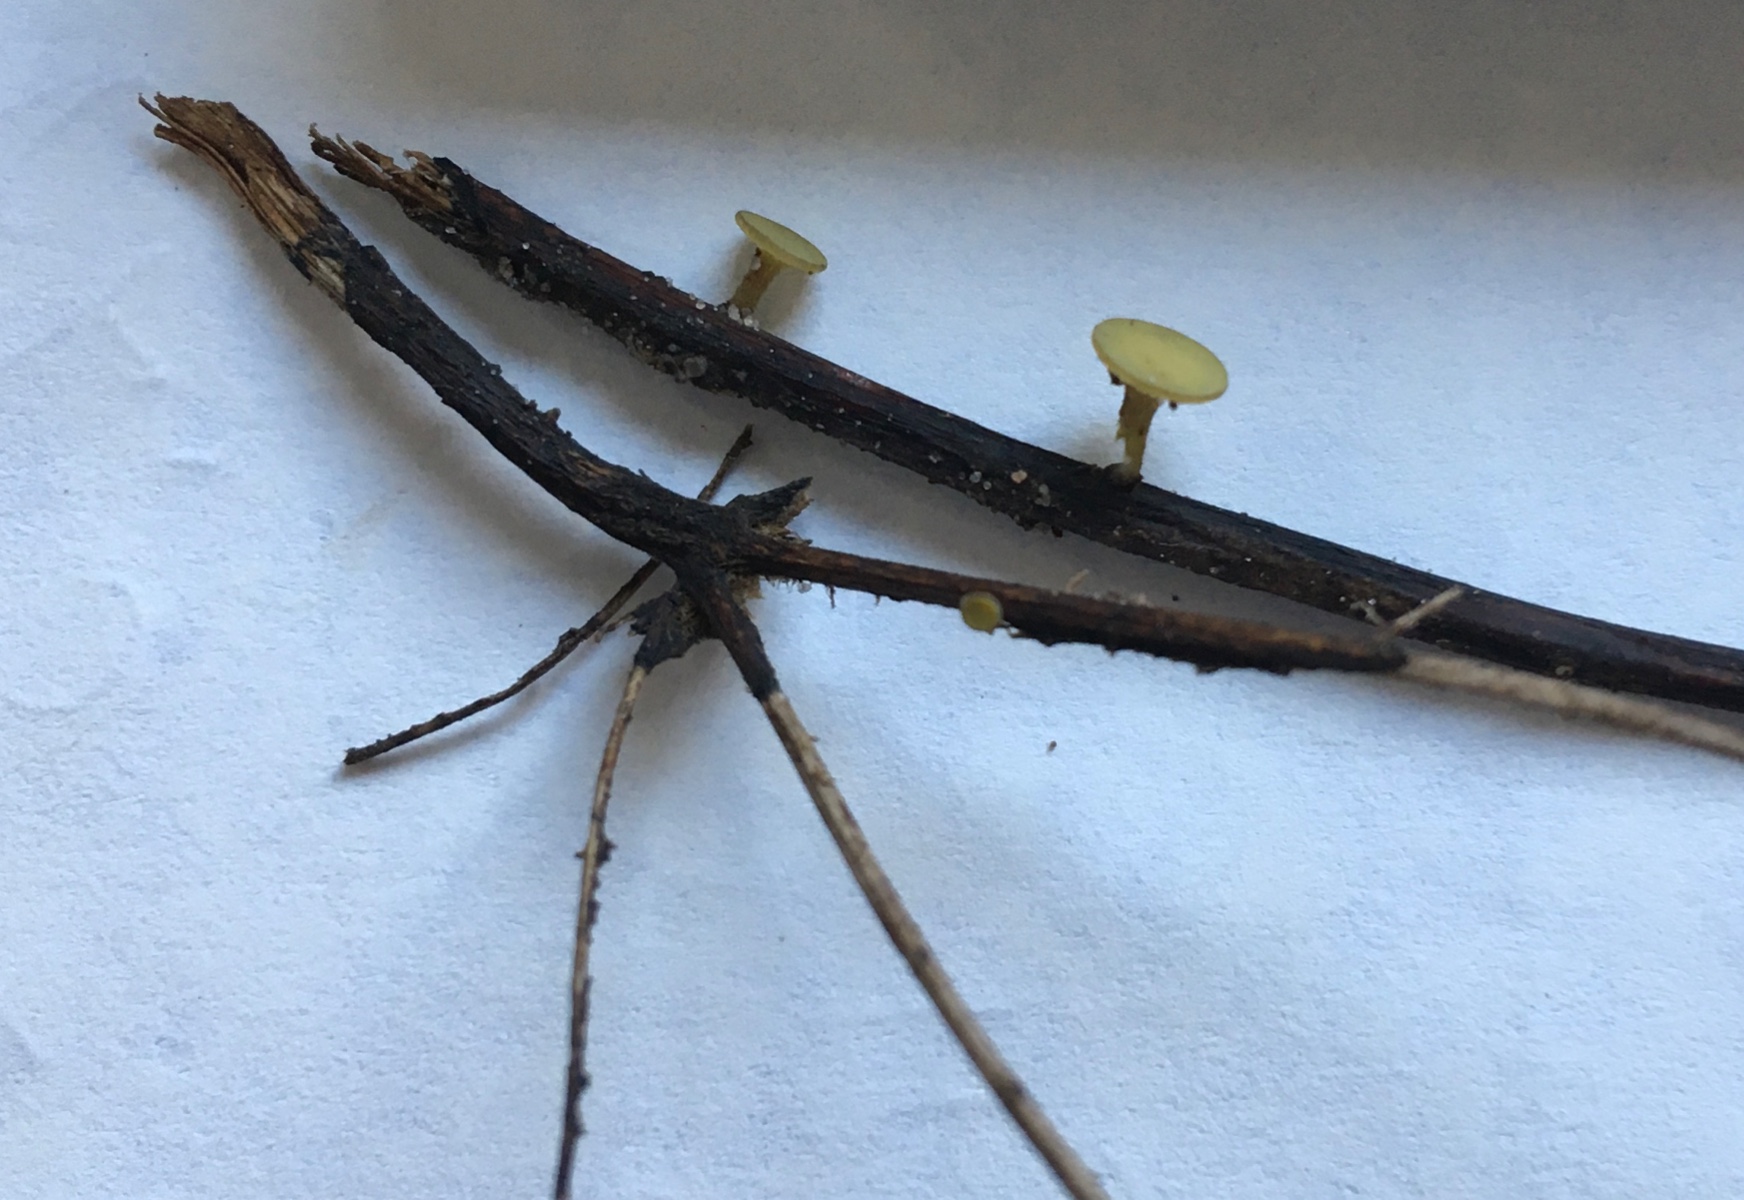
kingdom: Fungi
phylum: Ascomycota
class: Leotiomycetes
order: Helotiales
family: Rutstroemiaceae
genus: Lanzia
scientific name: Lanzia luteovirescens
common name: olivengul brunskive
